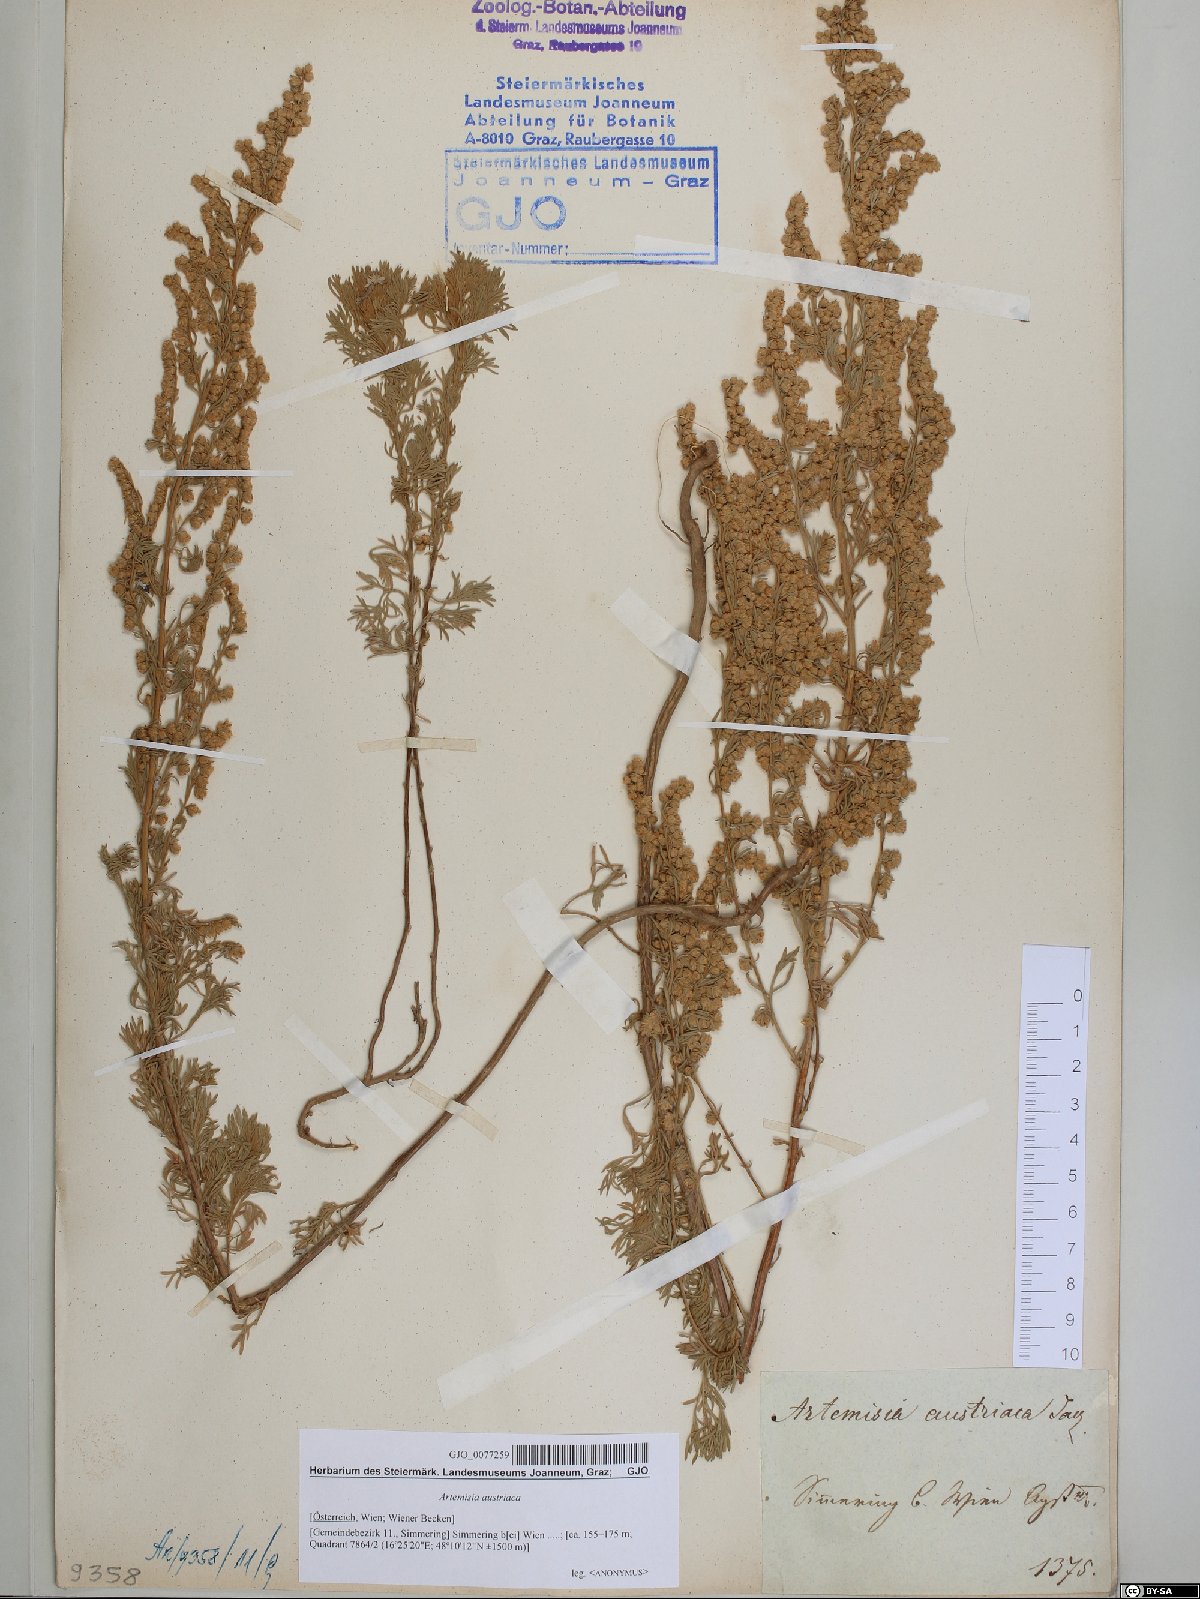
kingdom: Plantae
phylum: Tracheophyta
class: Magnoliopsida
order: Asterales
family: Asteraceae
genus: Artemisia
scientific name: Artemisia austriaca
